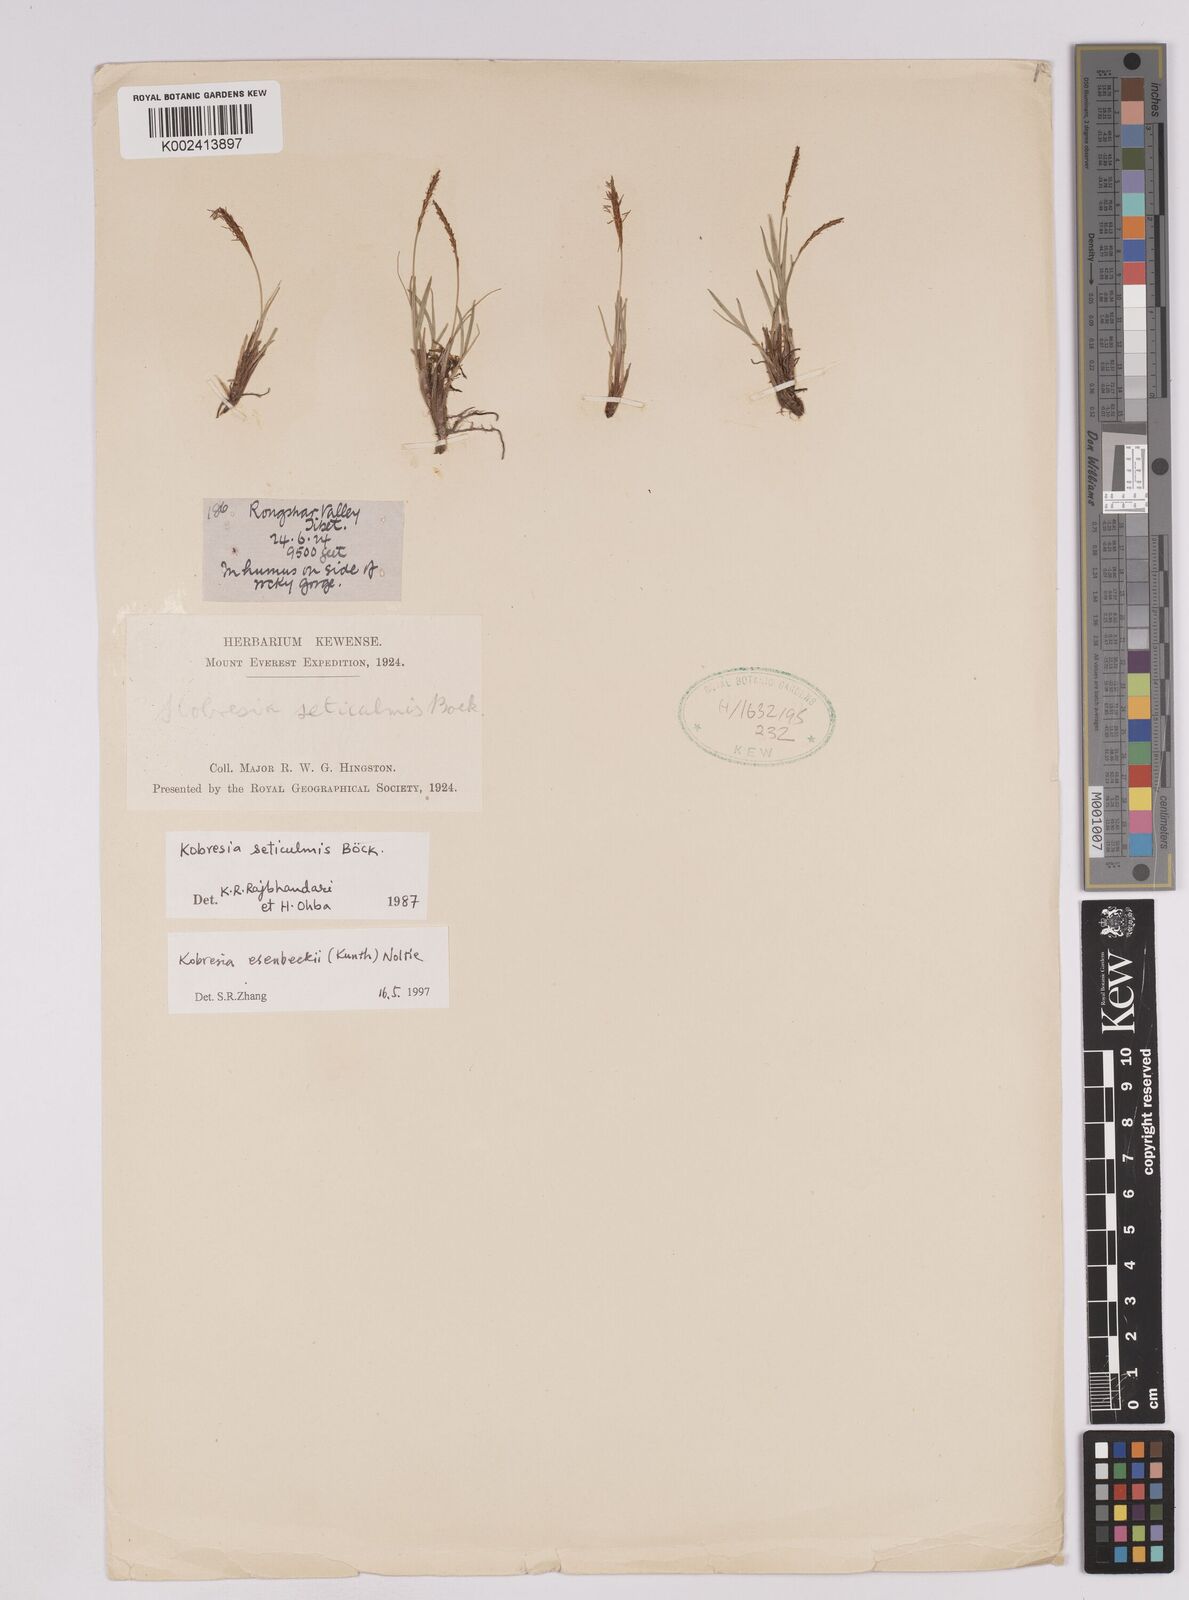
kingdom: Plantae
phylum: Tracheophyta
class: Liliopsida
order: Poales
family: Cyperaceae
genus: Carex
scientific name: Carex esenbeckii
